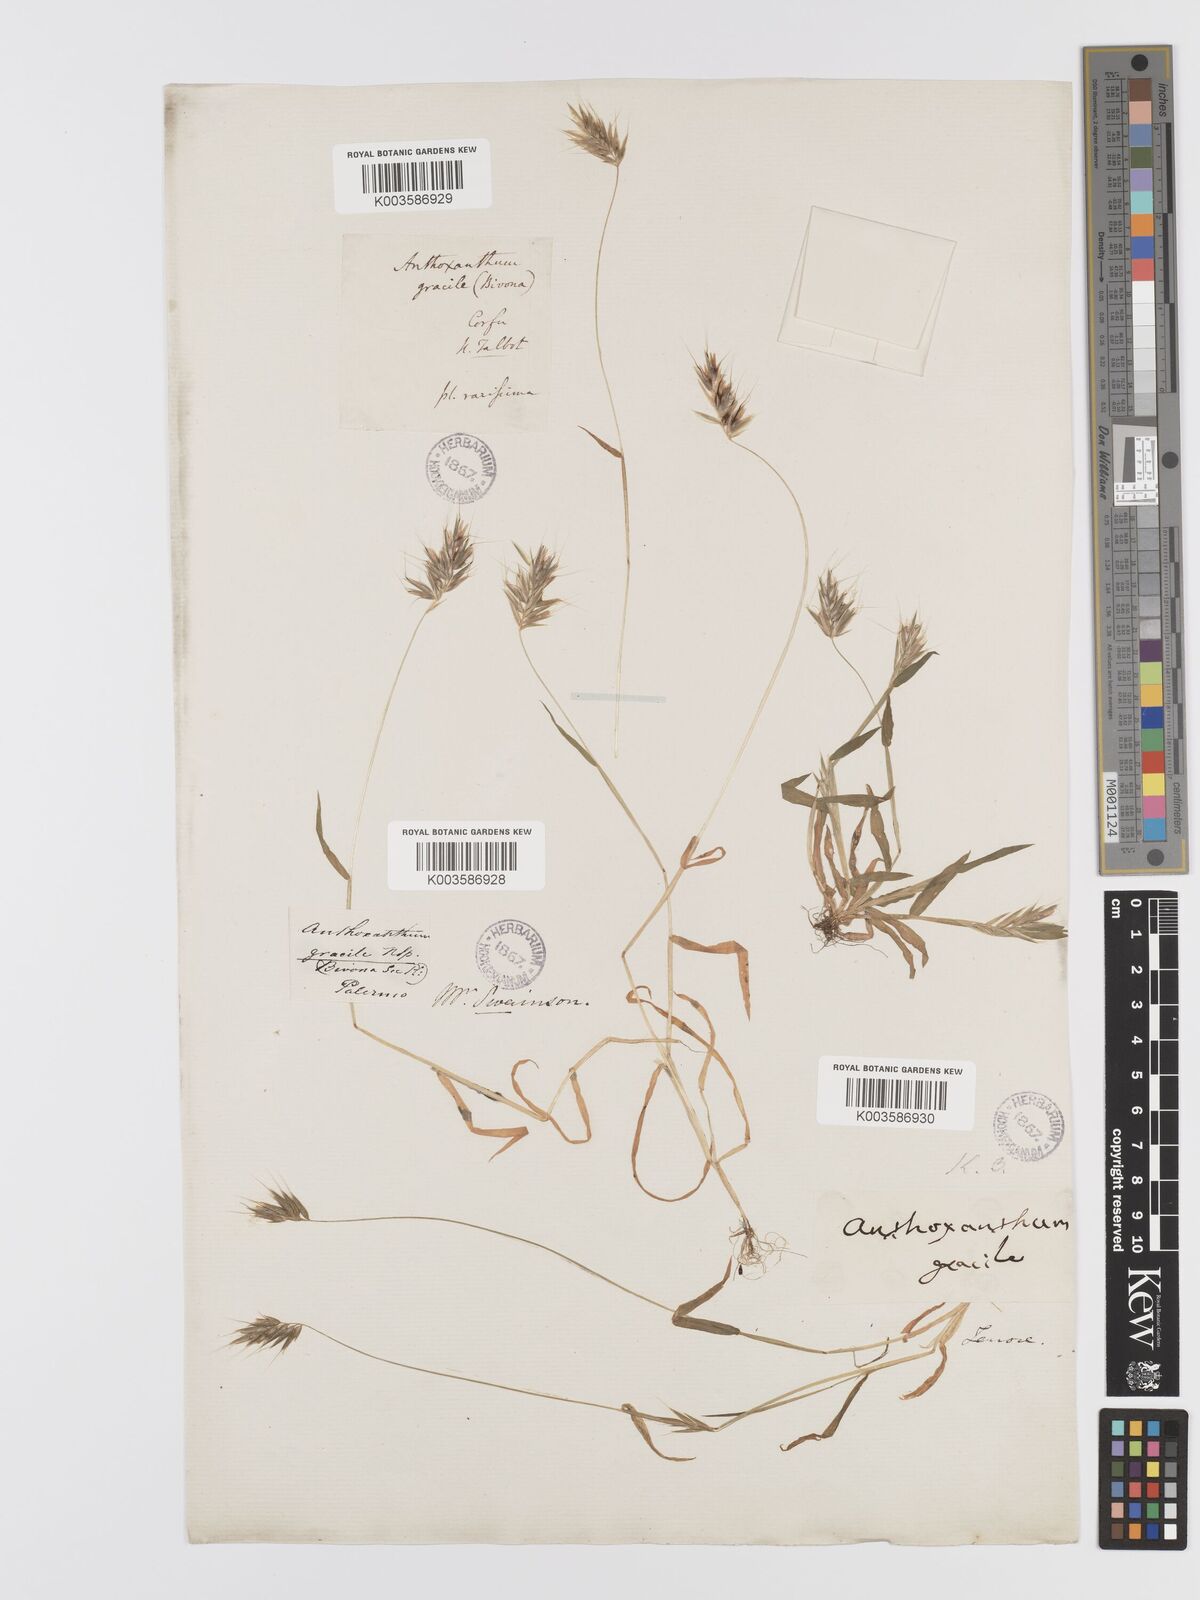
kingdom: Plantae
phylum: Tracheophyta
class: Liliopsida
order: Poales
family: Poaceae
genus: Anthoxanthum
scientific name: Anthoxanthum gracile
